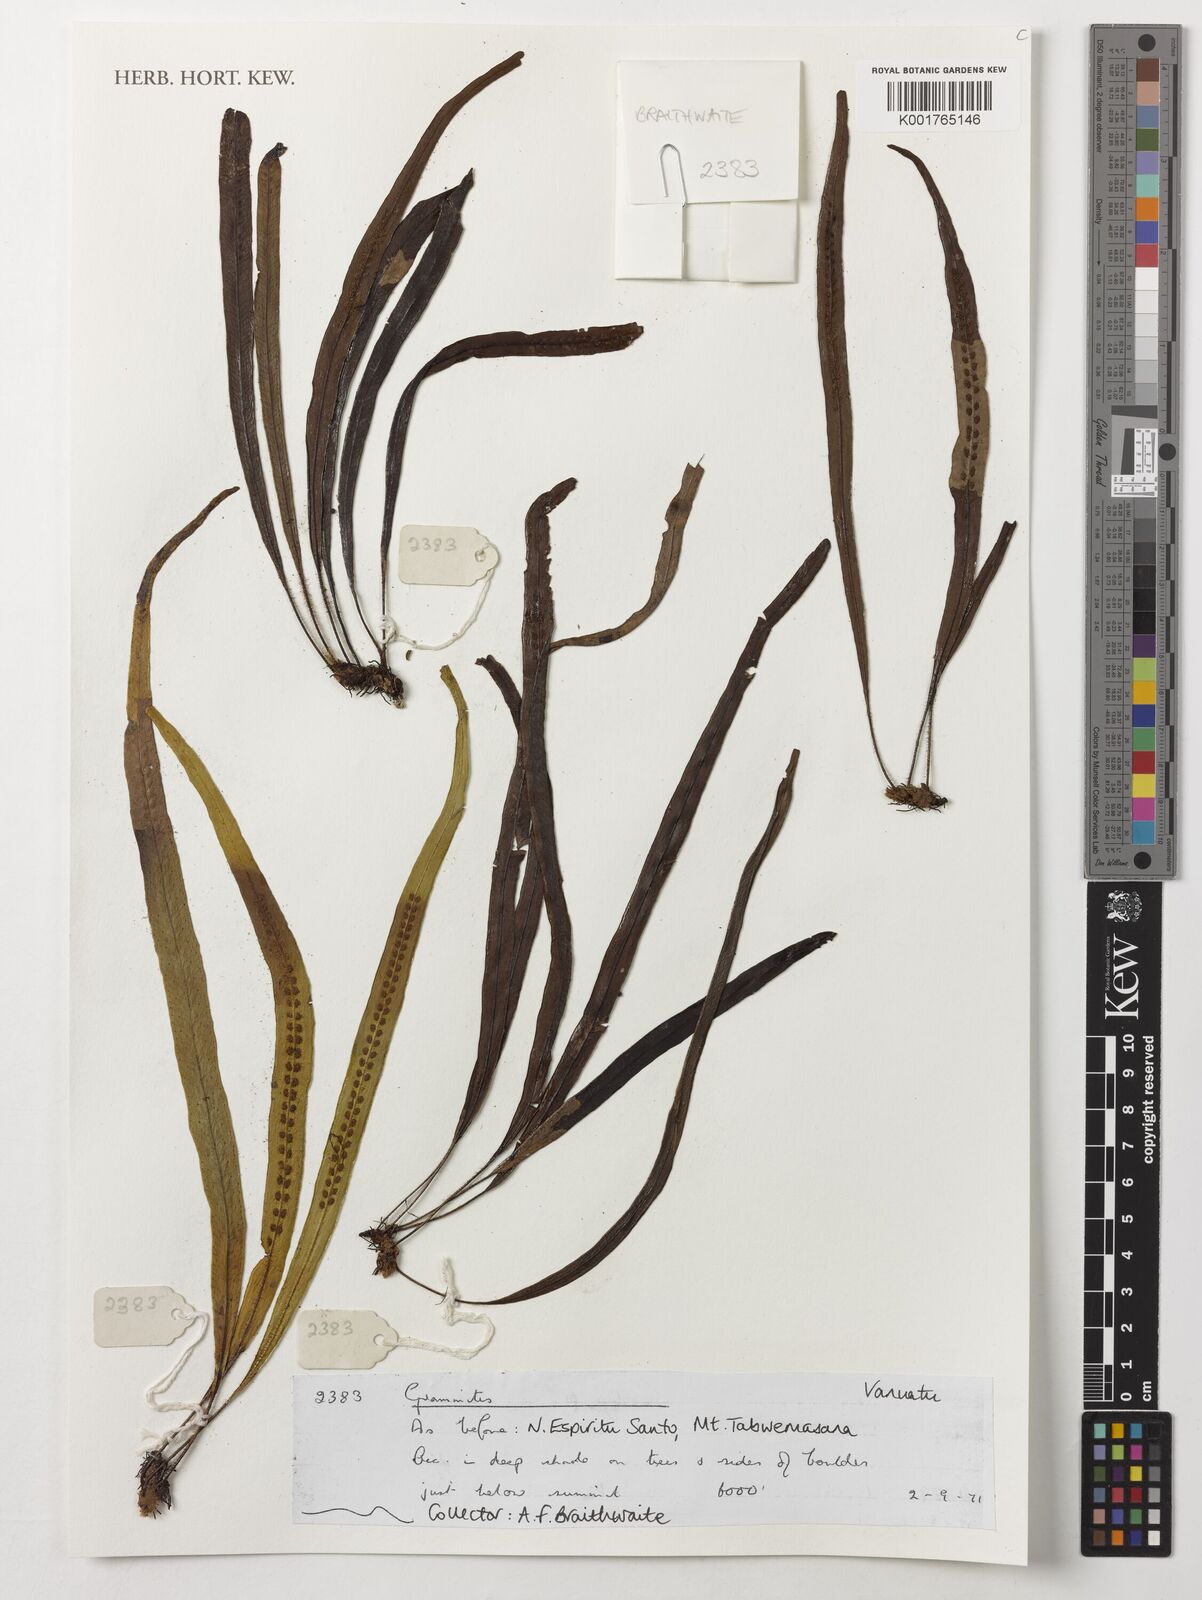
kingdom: Plantae
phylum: Tracheophyta
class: Polypodiopsida
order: Polypodiales
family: Polypodiaceae
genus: Grammitis
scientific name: Grammitis
